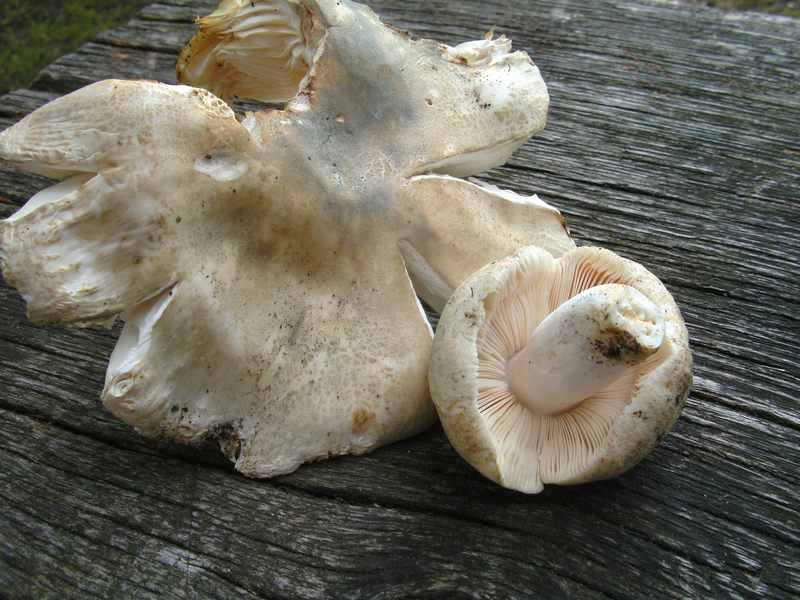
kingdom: Fungi
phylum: Basidiomycota
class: Agaricomycetes
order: Russulales
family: Russulaceae
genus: Russula
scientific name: Russula virescens
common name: spanskgrøn skørhat
